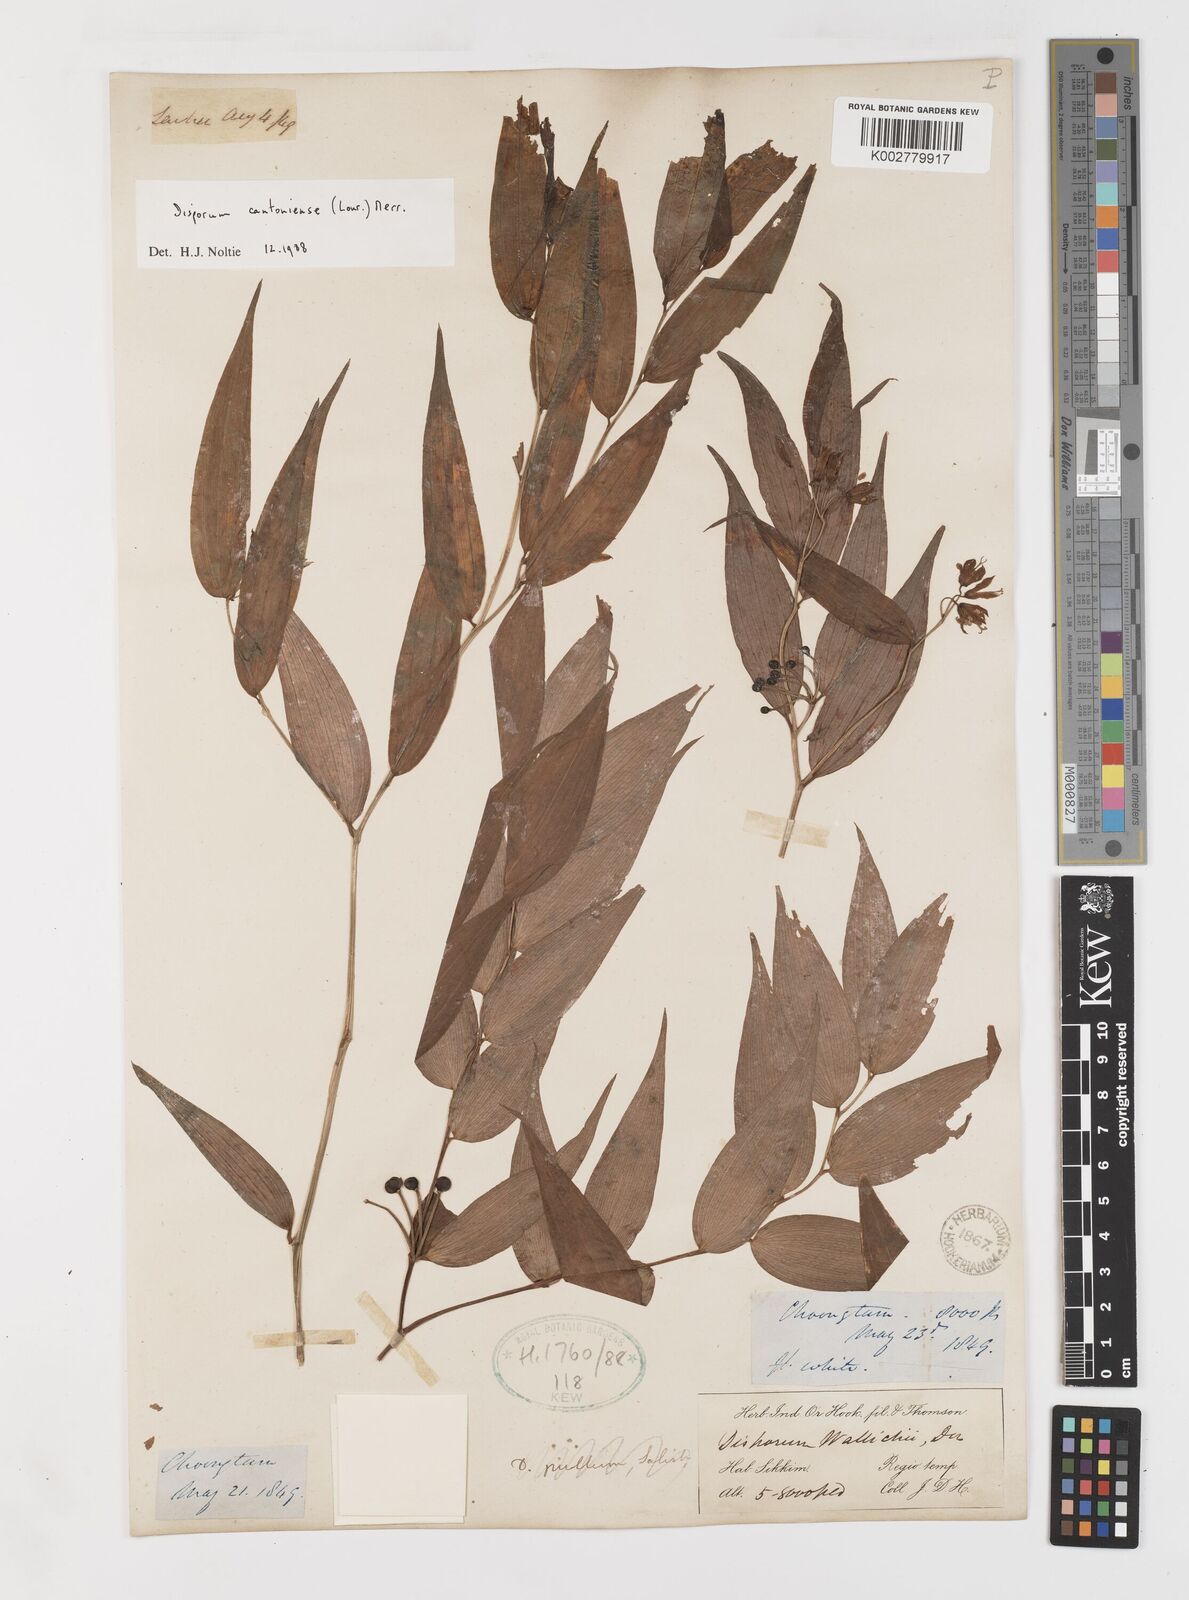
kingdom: Plantae
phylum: Tracheophyta
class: Liliopsida
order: Liliales
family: Colchicaceae
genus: Disporum
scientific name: Disporum cantoniense
